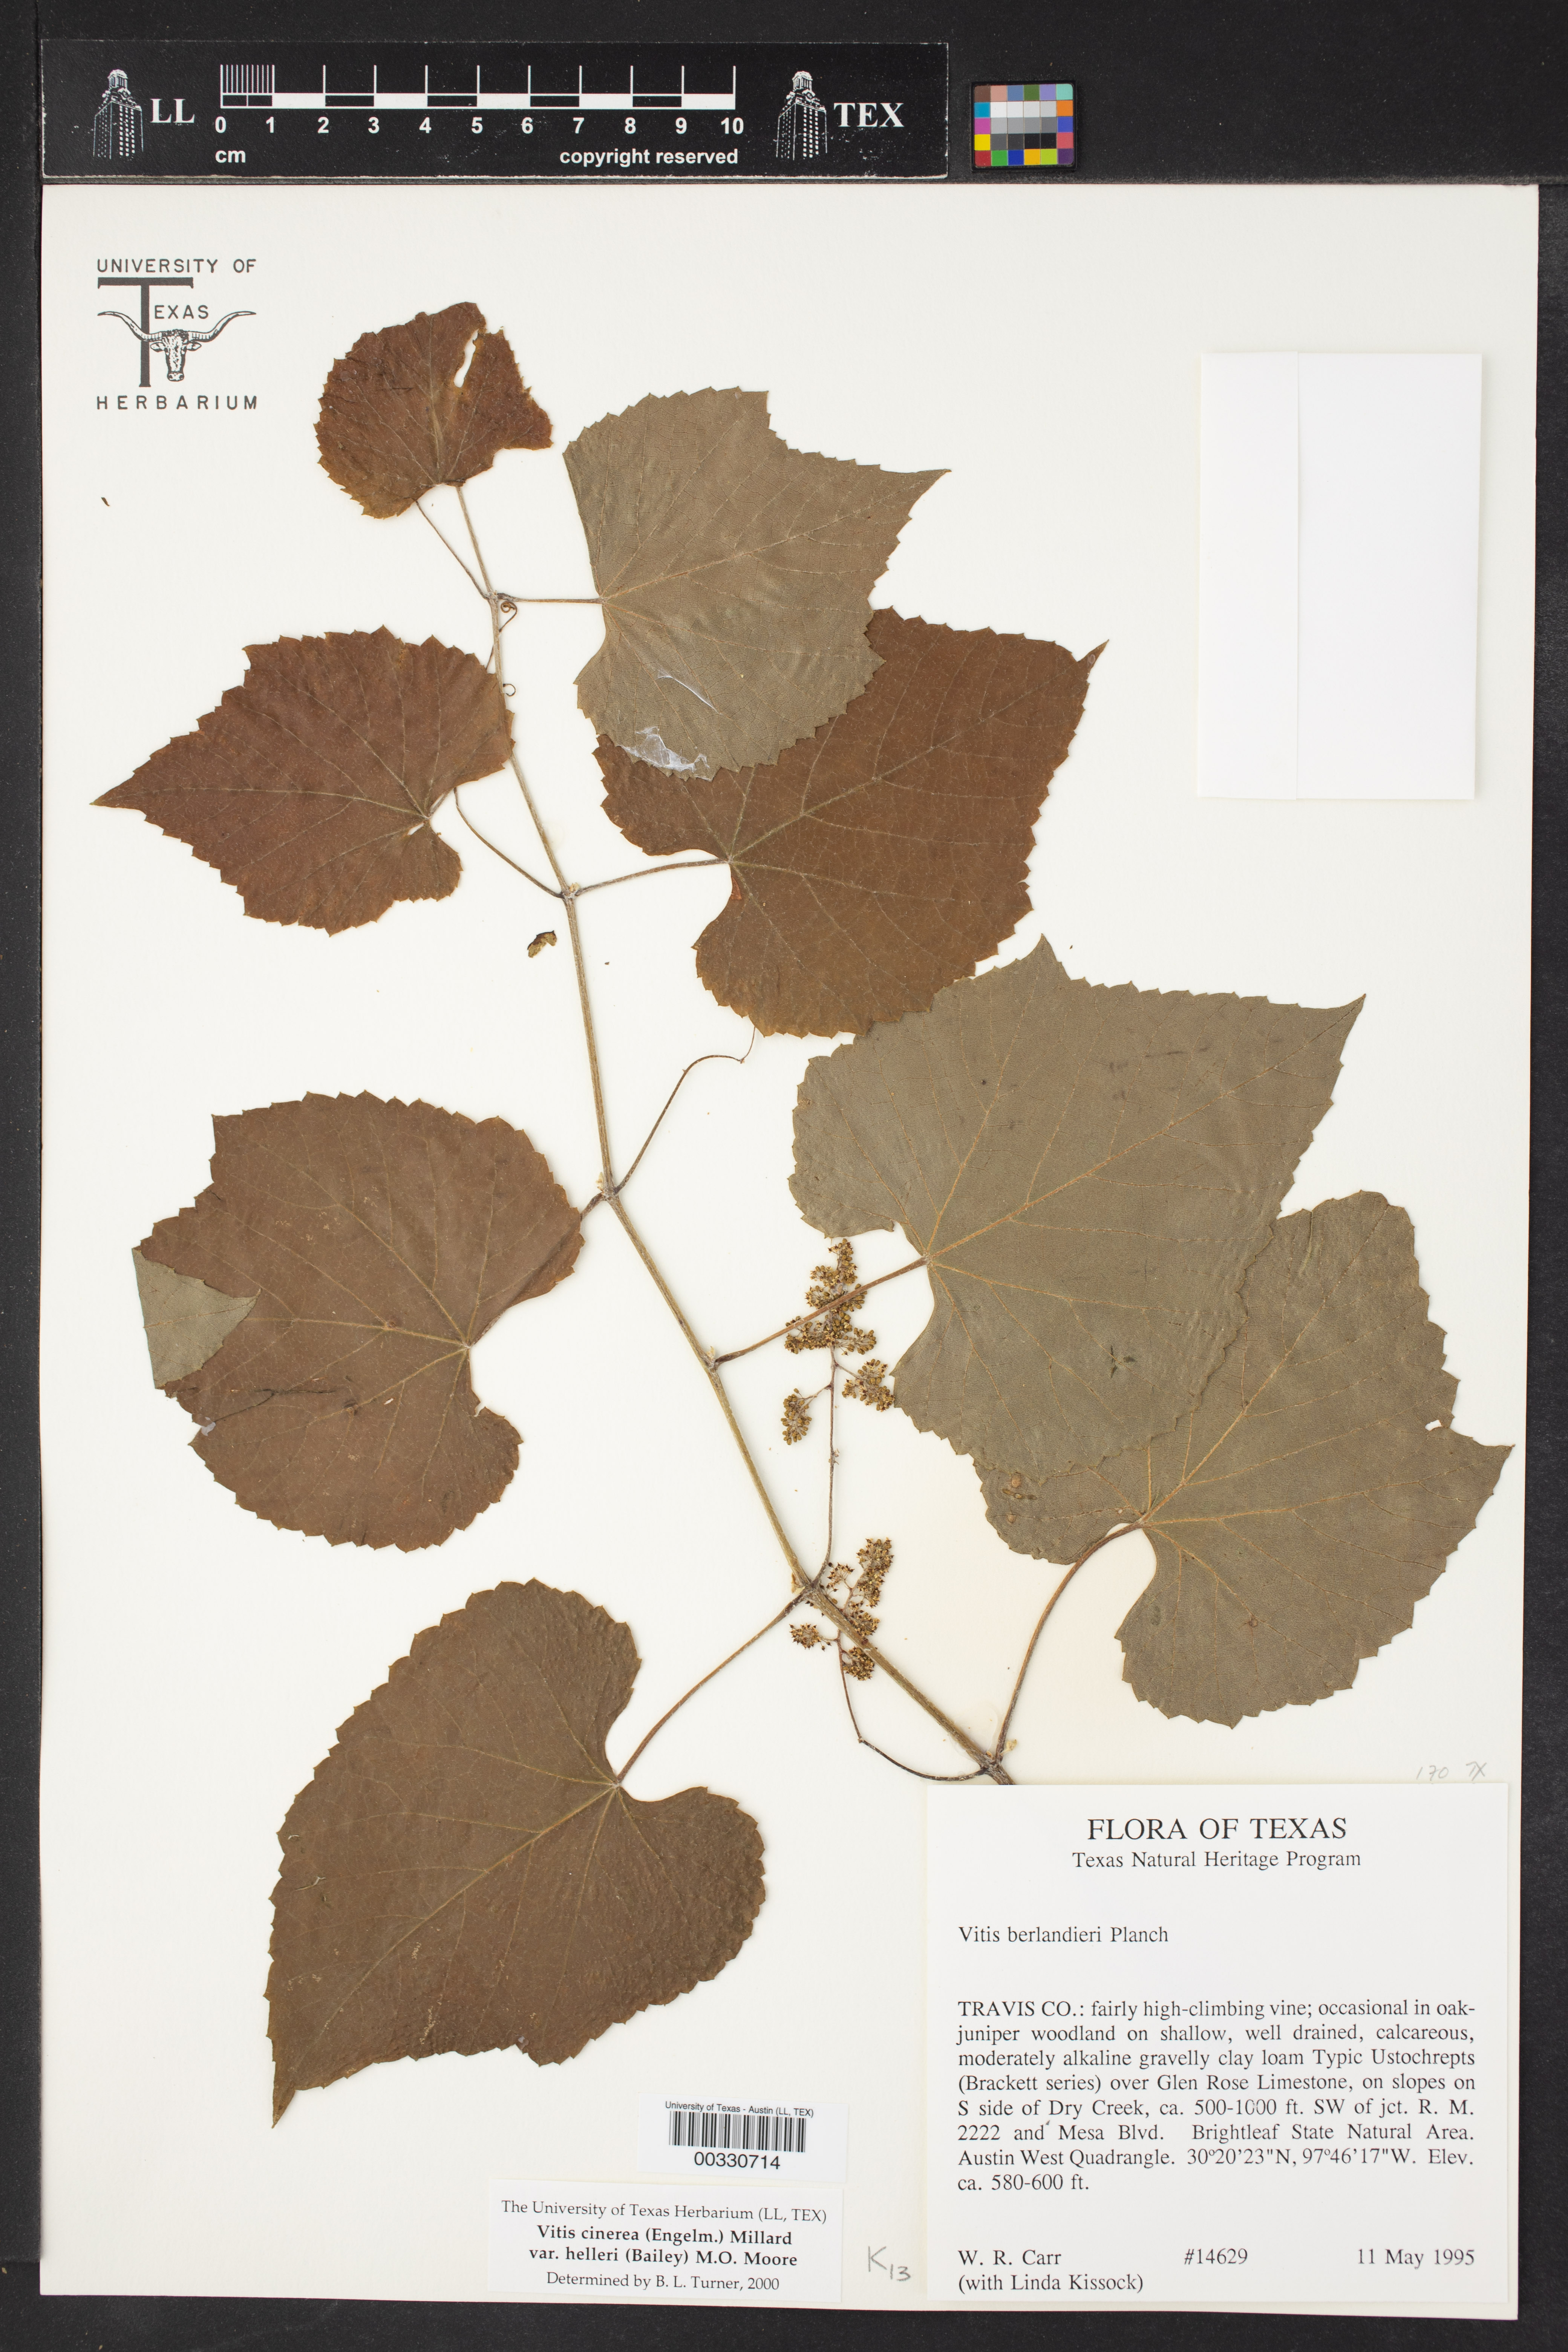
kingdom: Plantae
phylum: Tracheophyta
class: Magnoliopsida
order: Vitales
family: Vitaceae
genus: Vitis
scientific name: Vitis cinerea
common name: Ashy grape
